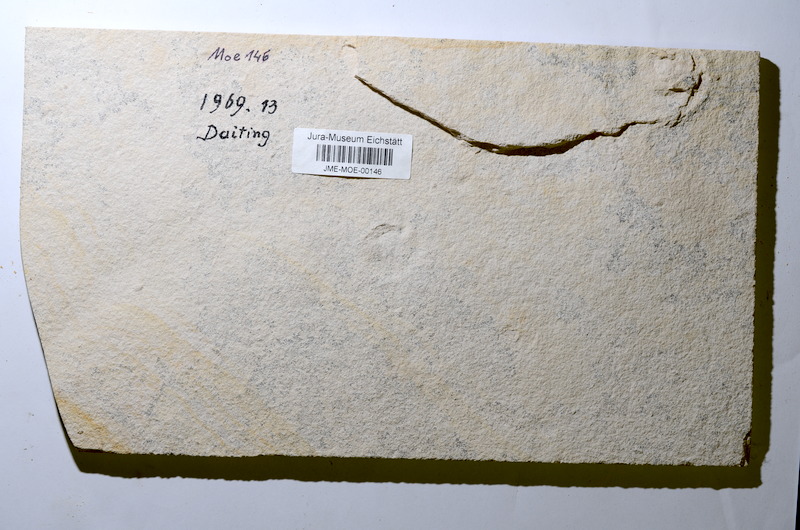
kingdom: Animalia
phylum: Chordata
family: Aspidorhynchidae
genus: Belonostomus
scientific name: Belonostomus
